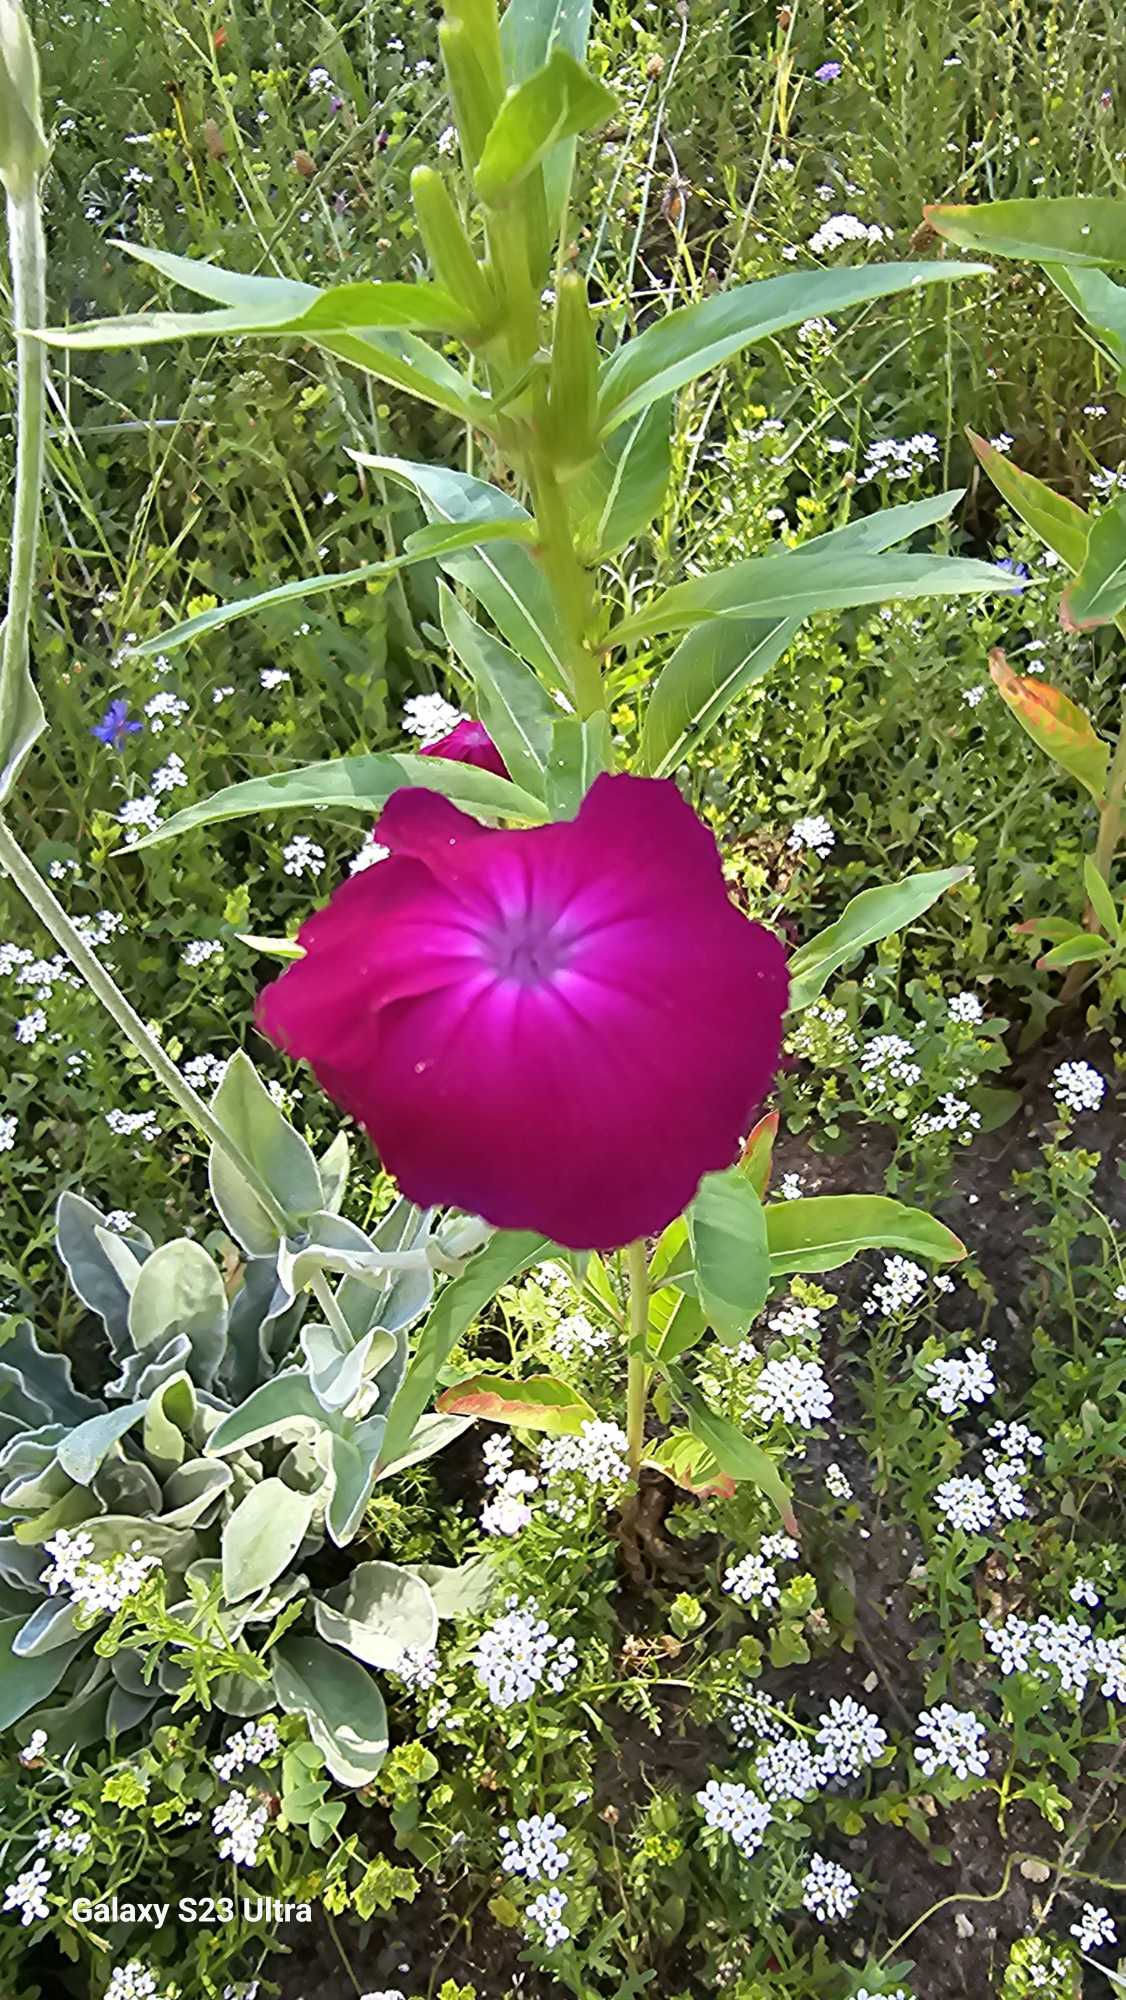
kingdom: Plantae
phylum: Tracheophyta
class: Magnoliopsida
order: Caryophyllales
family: Caryophyllaceae
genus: Silene
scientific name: Silene coronaria
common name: Fiksernellike
